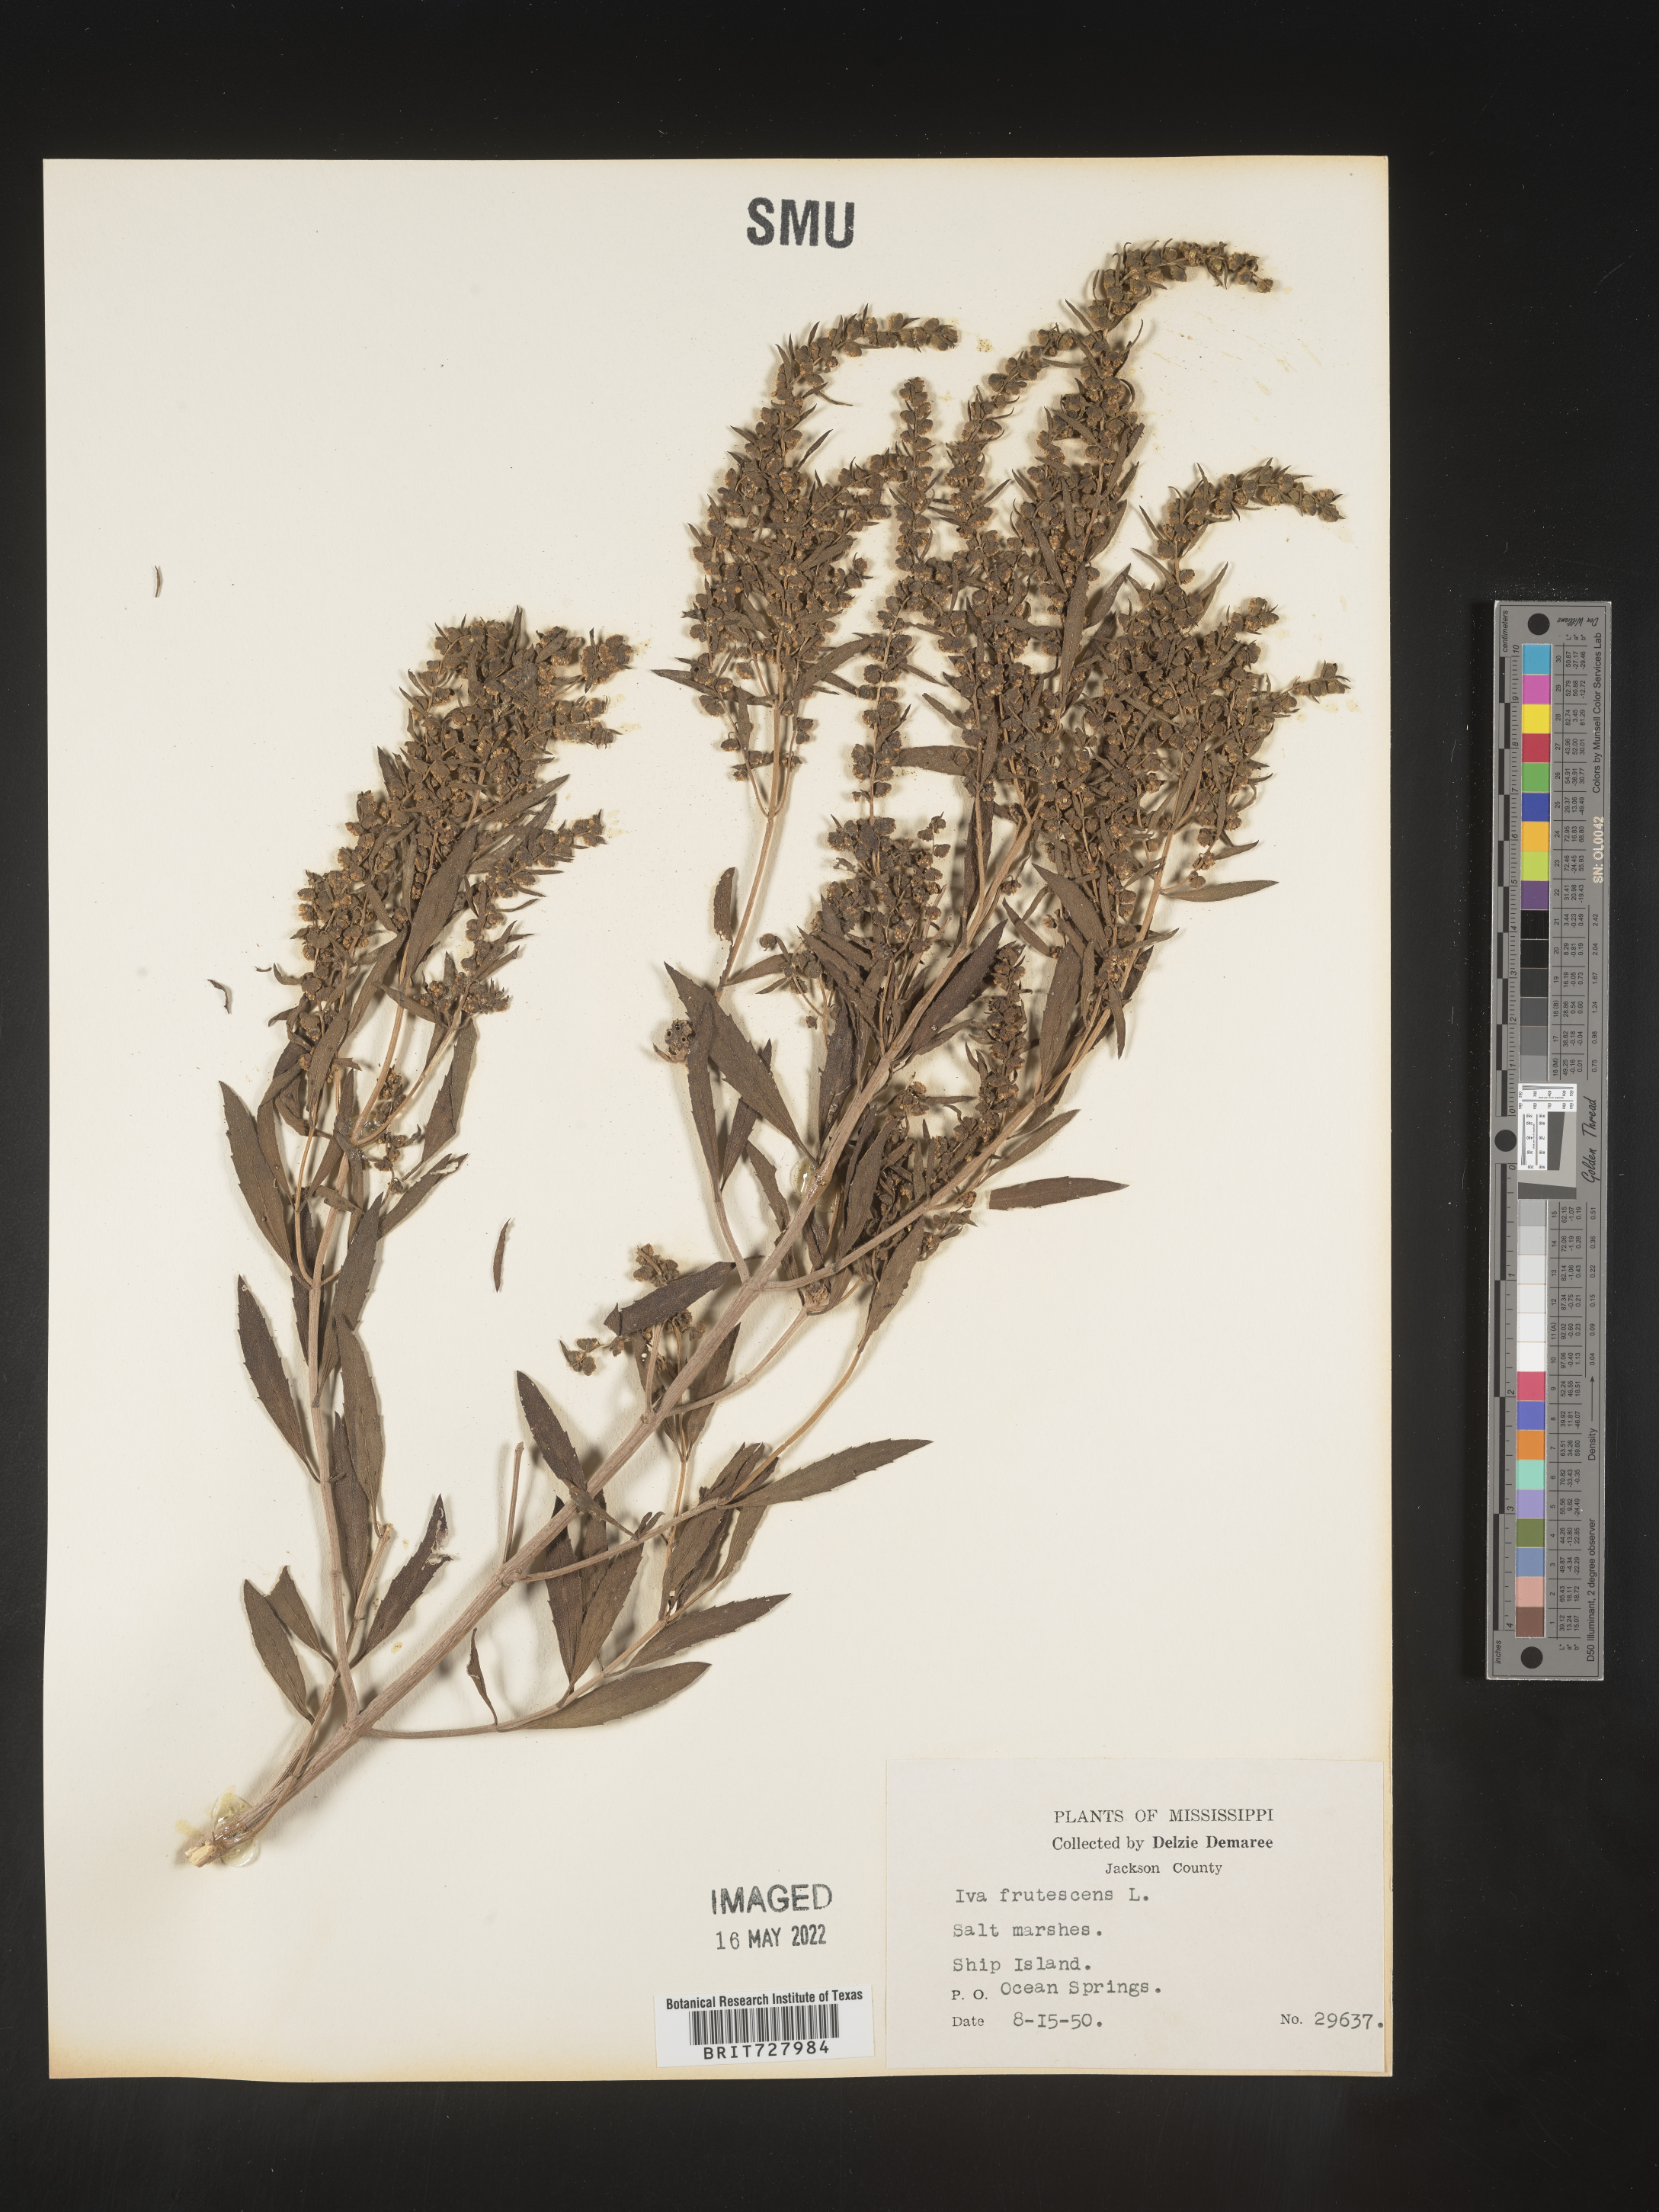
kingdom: Plantae
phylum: Tracheophyta
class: Magnoliopsida
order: Asterales
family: Asteraceae
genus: Iva
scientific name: Iva frutescens
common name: Big-leaved marsh-elder
